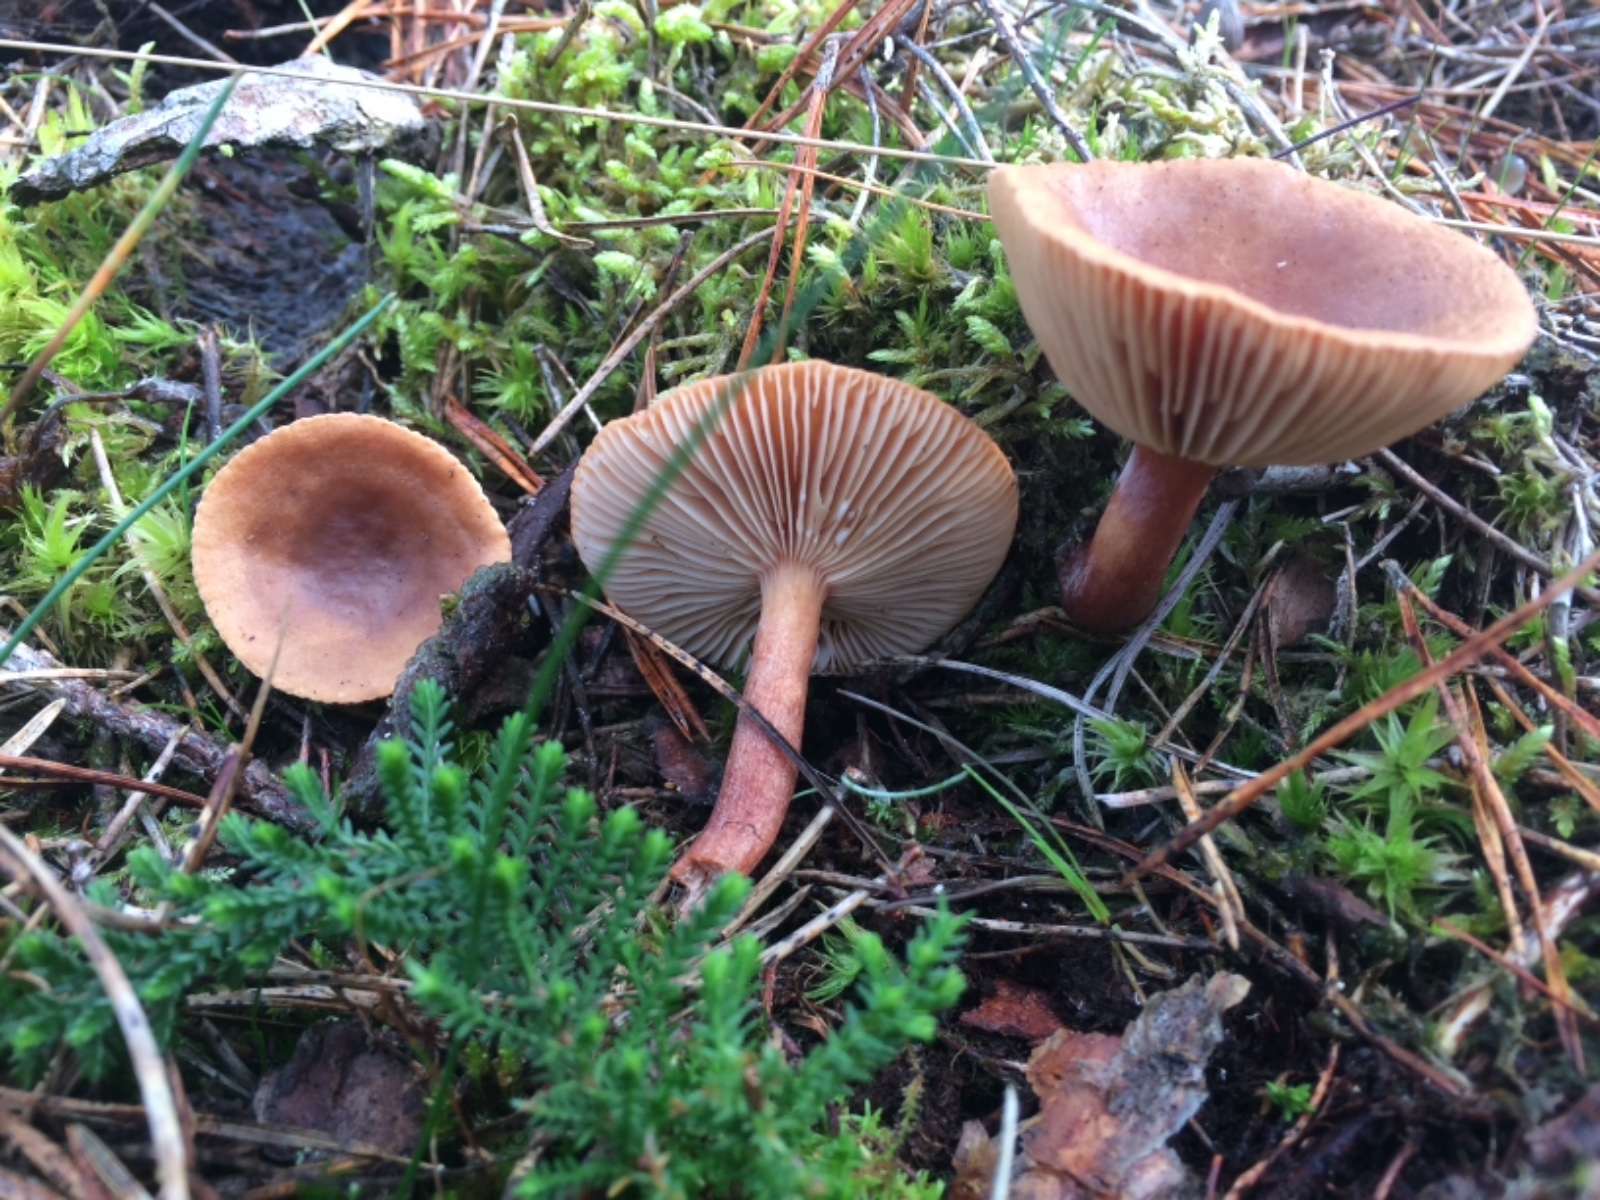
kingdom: Fungi
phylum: Basidiomycota
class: Agaricomycetes
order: Russulales
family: Russulaceae
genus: Lactarius
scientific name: Lactarius hepaticus
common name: leverbrun mælkehat
